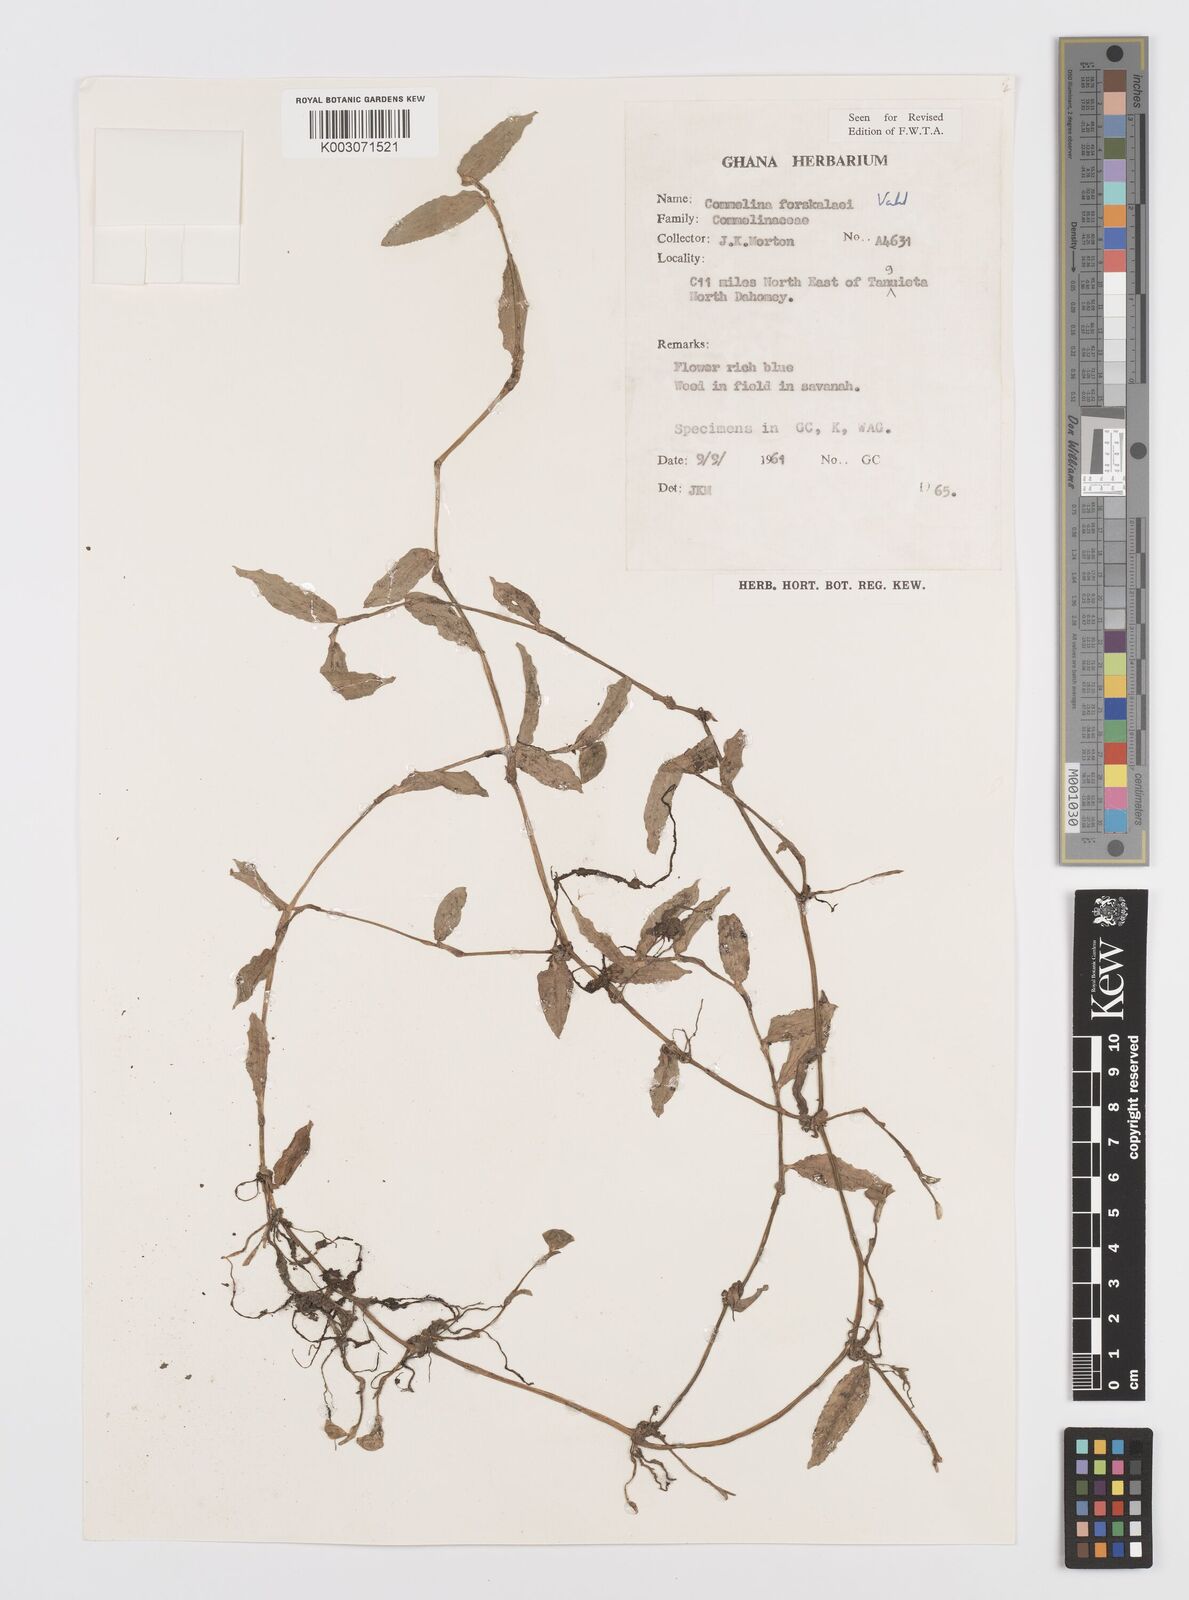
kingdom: Plantae
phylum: Tracheophyta
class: Liliopsida
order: Commelinales
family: Commelinaceae
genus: Commelina
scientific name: Commelina forskaolii
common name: Rat's ear
